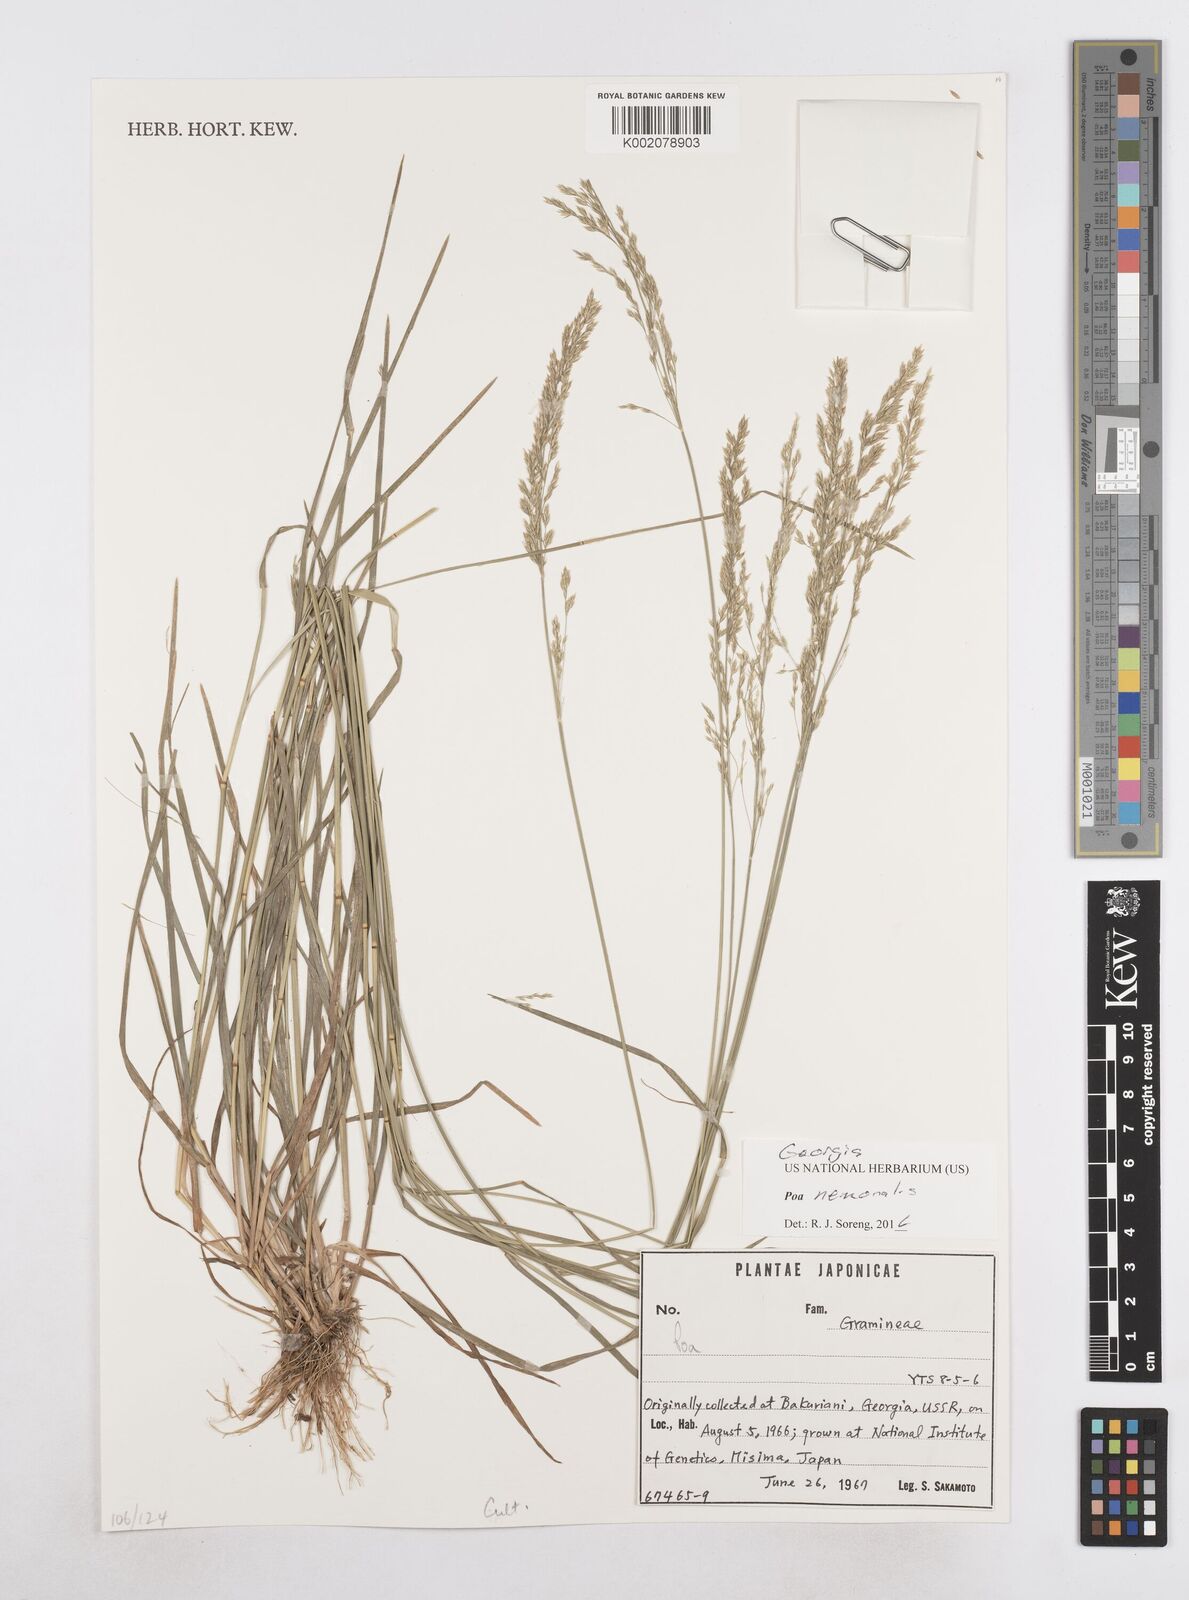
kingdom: Plantae
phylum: Tracheophyta
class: Liliopsida
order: Poales
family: Poaceae
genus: Poa
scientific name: Poa nemoralis
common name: Wood bluegrass
